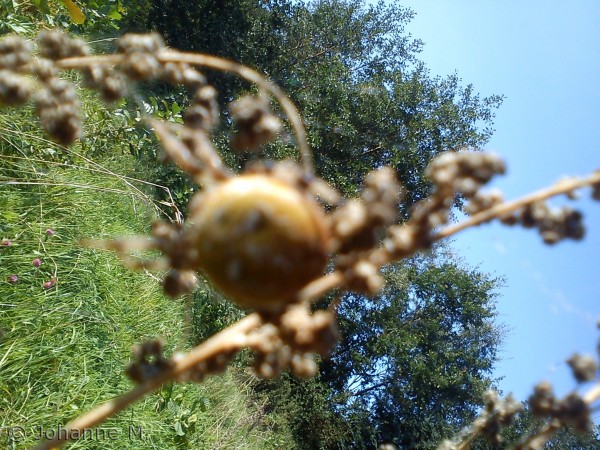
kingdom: Animalia
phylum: Arthropoda
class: Arachnida
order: Araneae
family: Araneidae
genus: Araneus
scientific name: Araneus quadratus
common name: Kvadratedderkop
